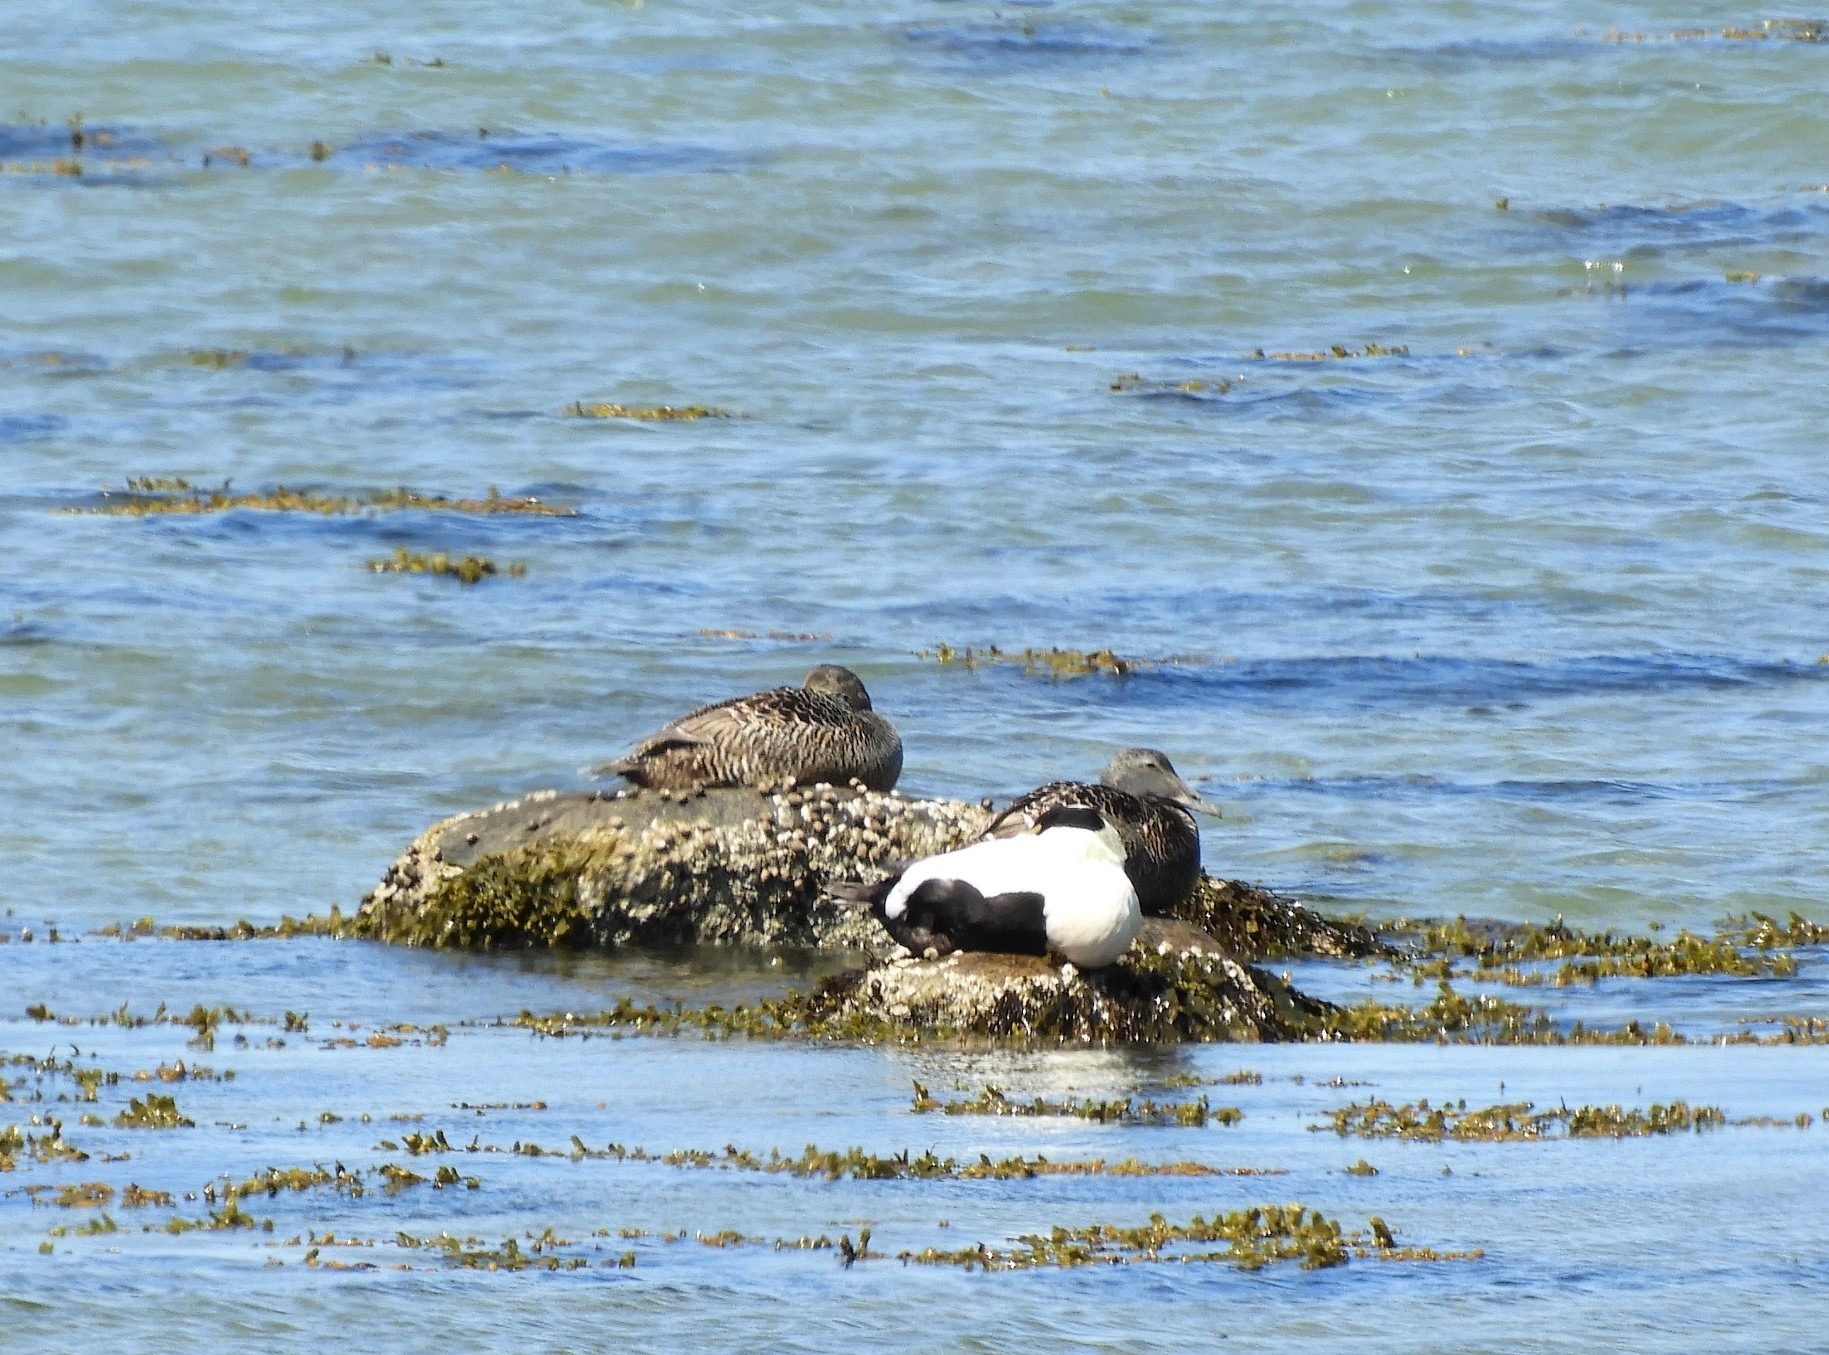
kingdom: Animalia
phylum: Chordata
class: Aves
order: Anseriformes
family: Anatidae
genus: Somateria
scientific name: Somateria mollissima
